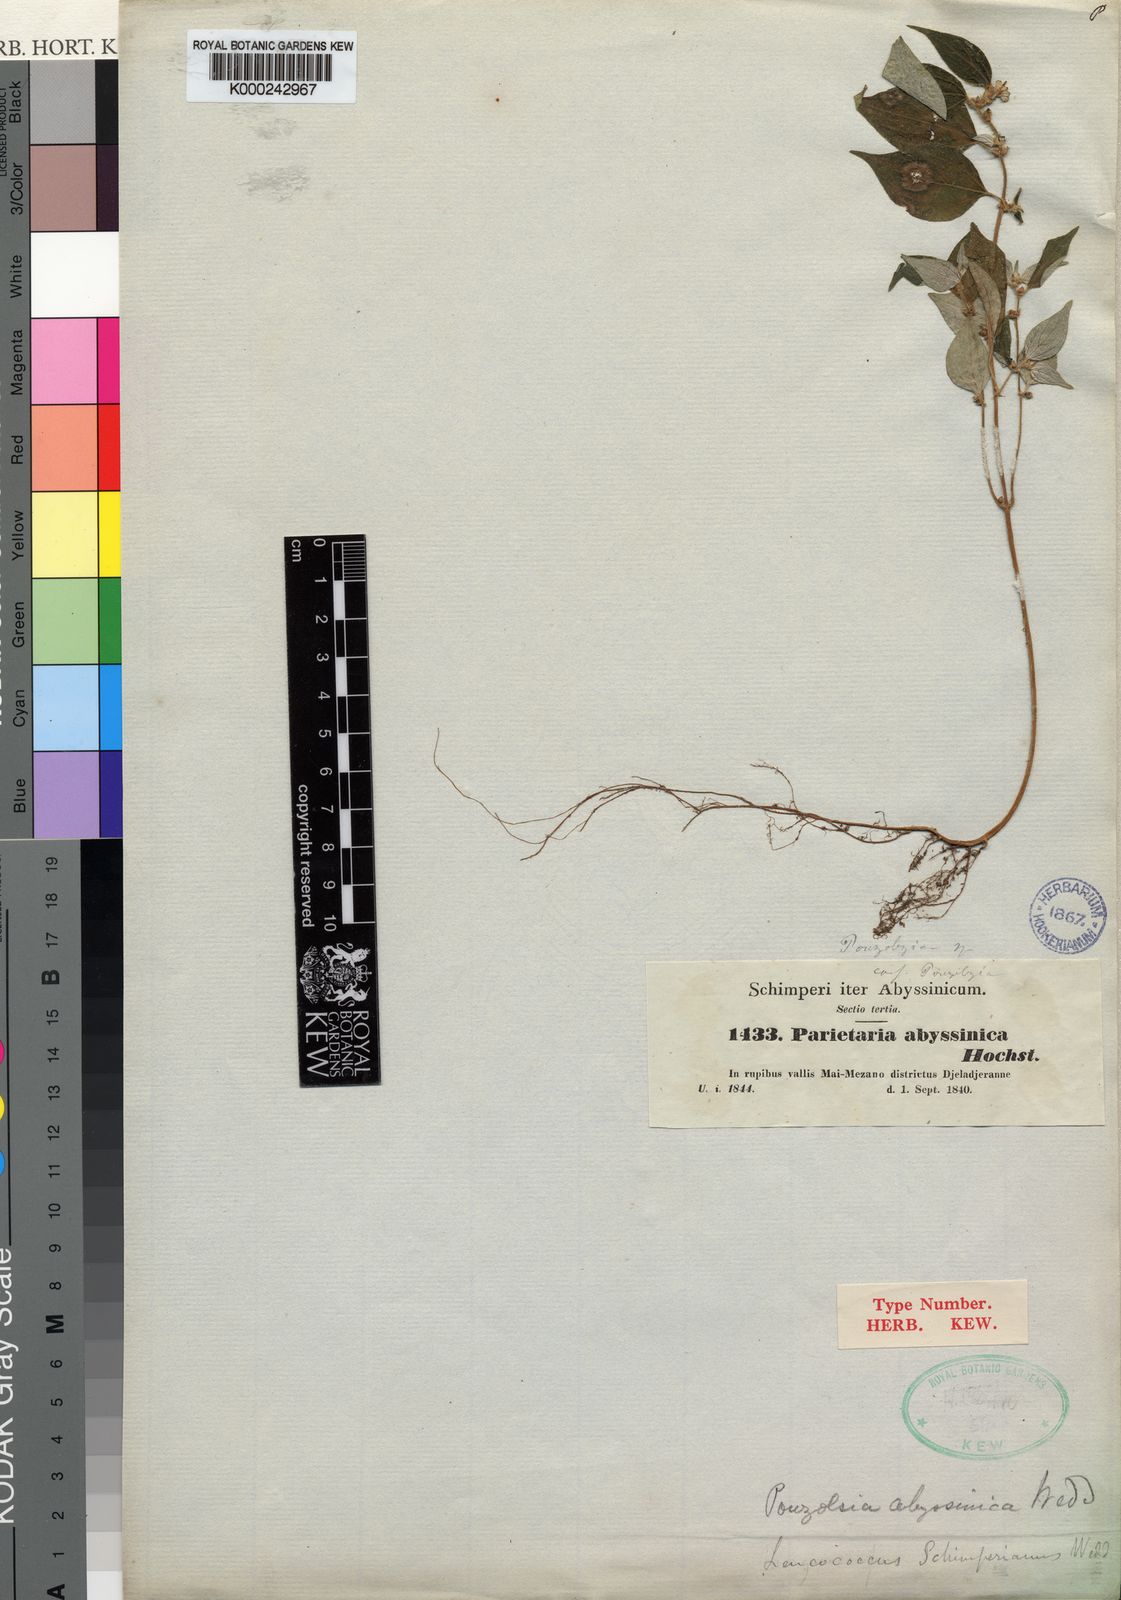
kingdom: Plantae
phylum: Tracheophyta
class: Magnoliopsida
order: Rosales
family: Urticaceae
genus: Pouzolzia
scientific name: Pouzolzia guineensis
